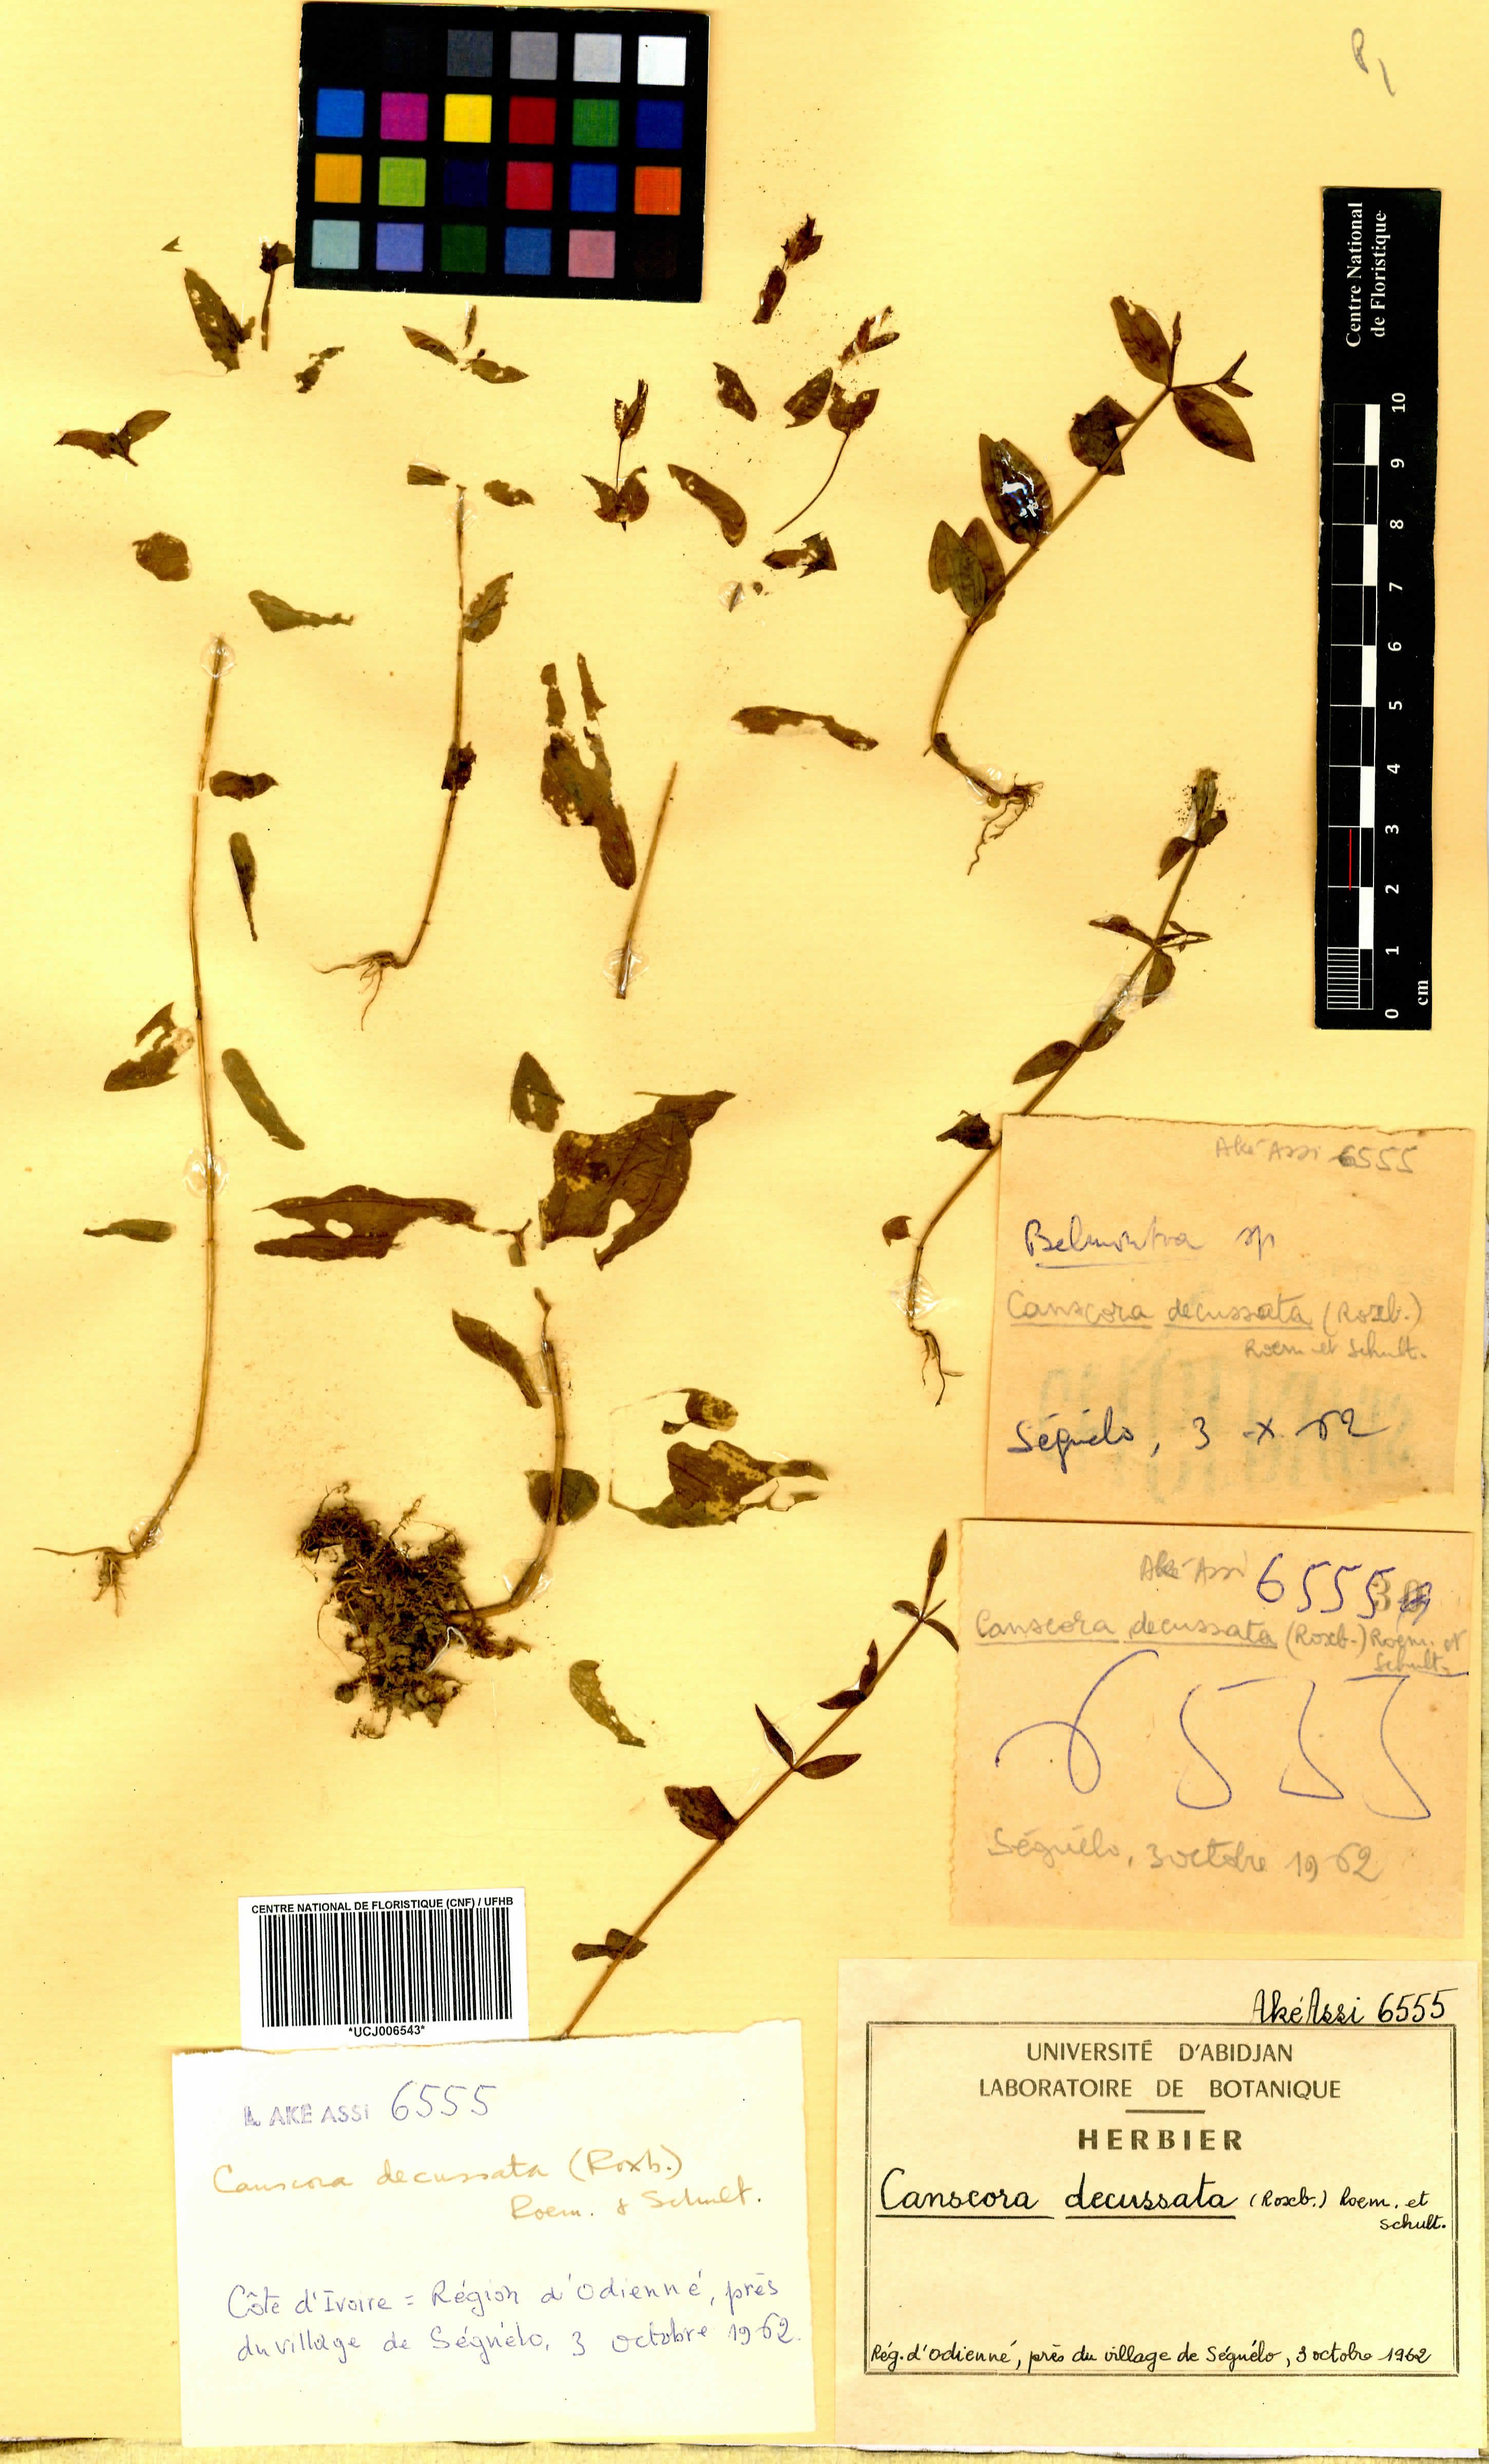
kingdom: Plantae
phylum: Tracheophyta
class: Magnoliopsida
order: Gentianales
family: Gentianaceae
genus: Canscora
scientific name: Canscora alata
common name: Canscora
